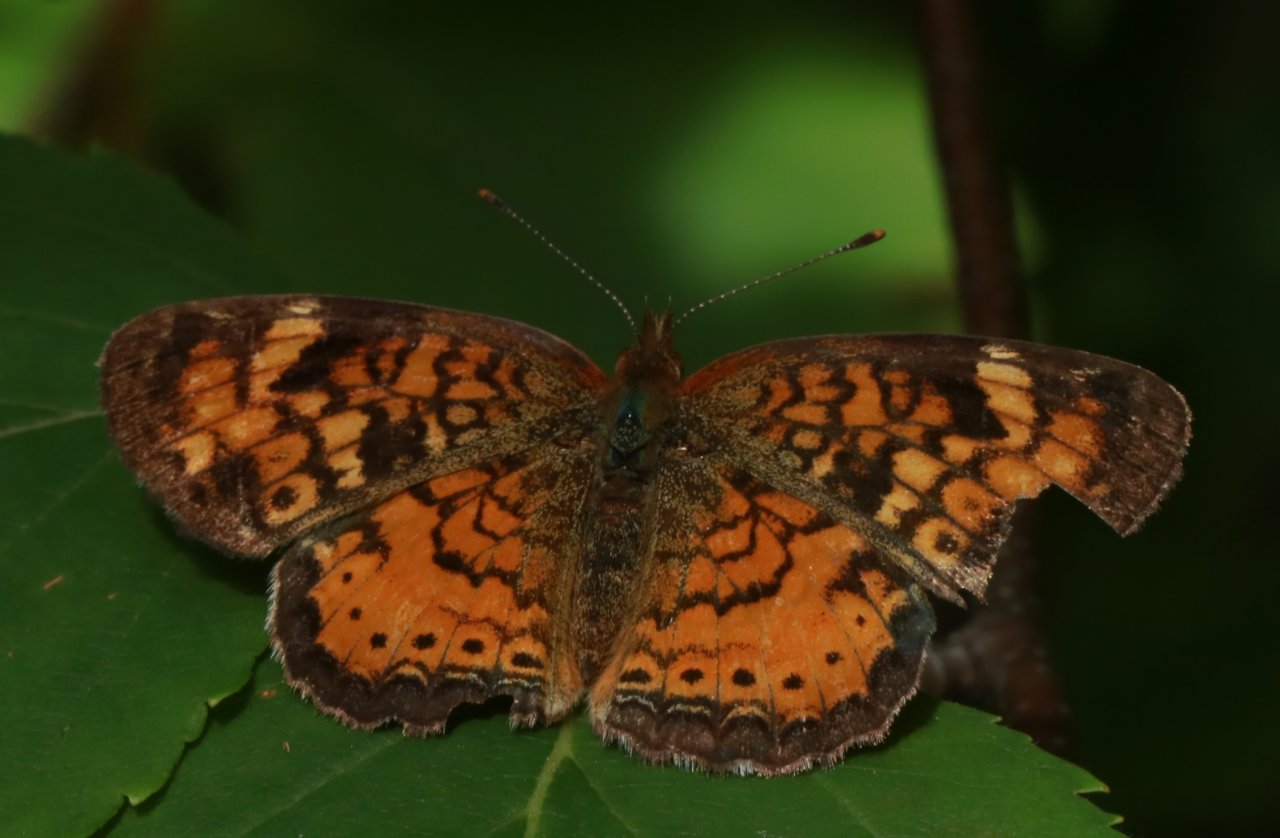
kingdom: Animalia
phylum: Arthropoda
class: Insecta
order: Lepidoptera
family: Nymphalidae
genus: Phyciodes
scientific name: Phyciodes tharos
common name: Northern Crescent
